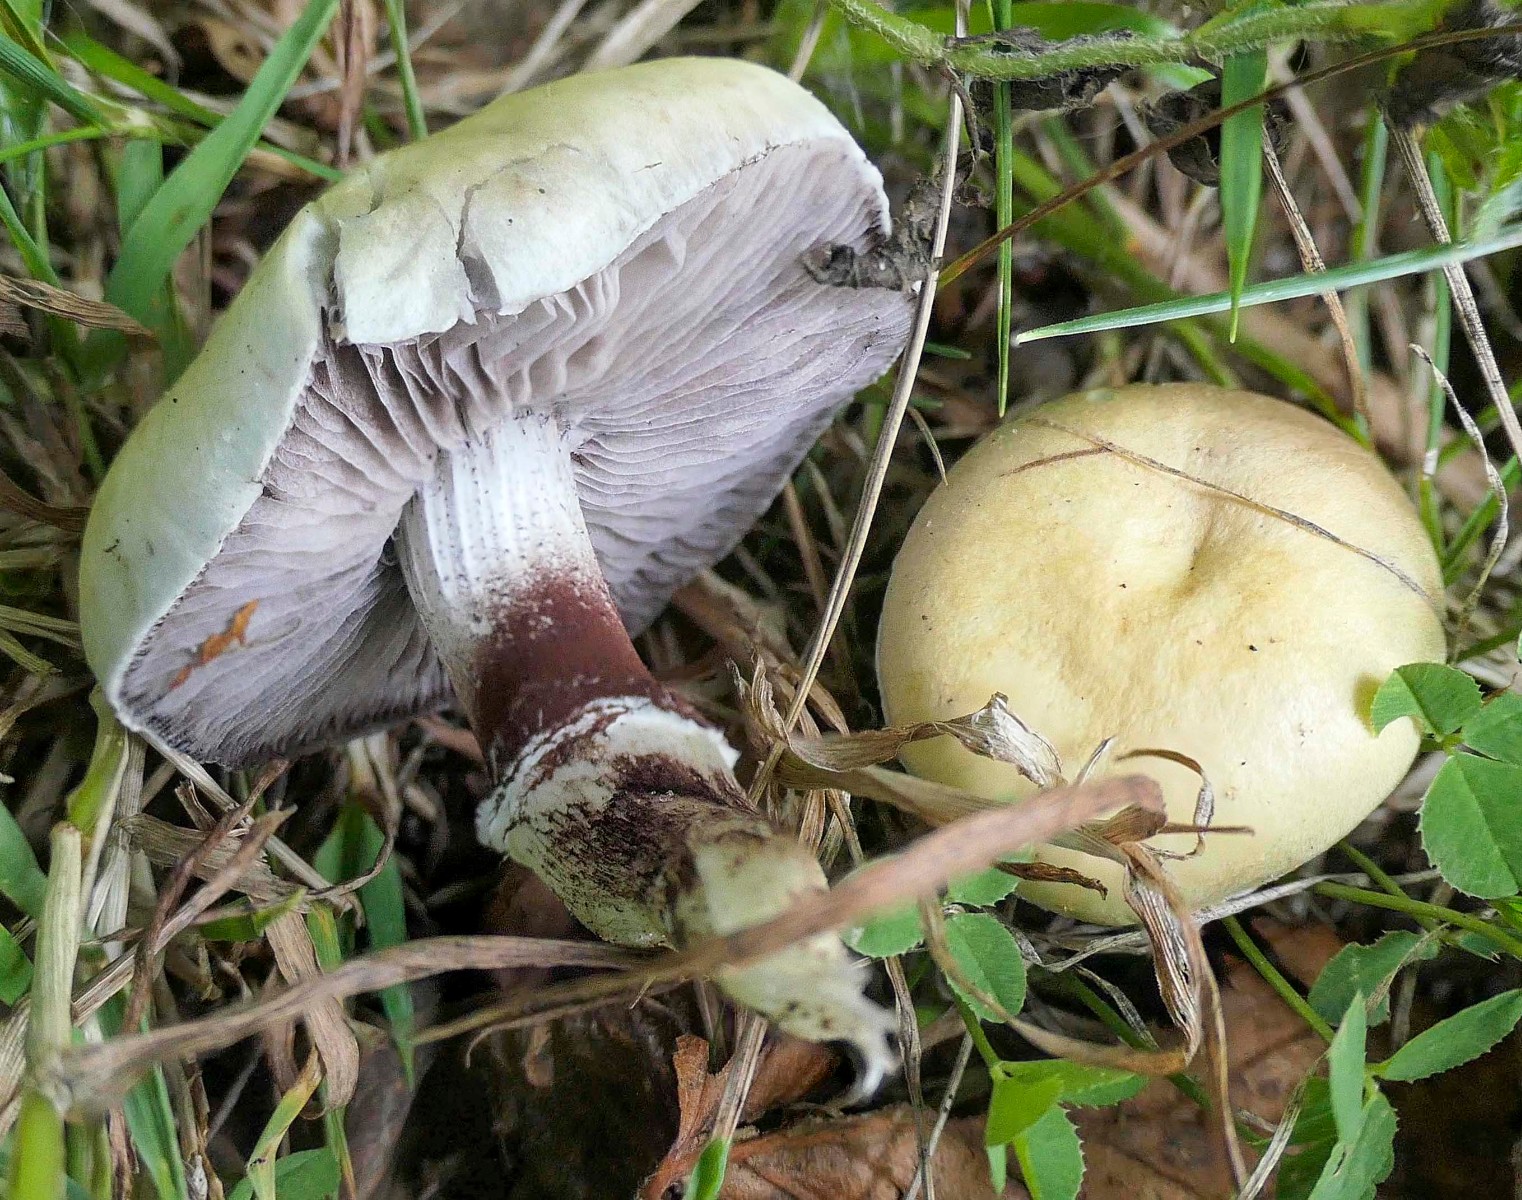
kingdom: Fungi
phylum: Basidiomycota
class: Agaricomycetes
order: Agaricales
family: Hymenogastraceae
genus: Psilocybe
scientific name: Psilocybe coronilla
